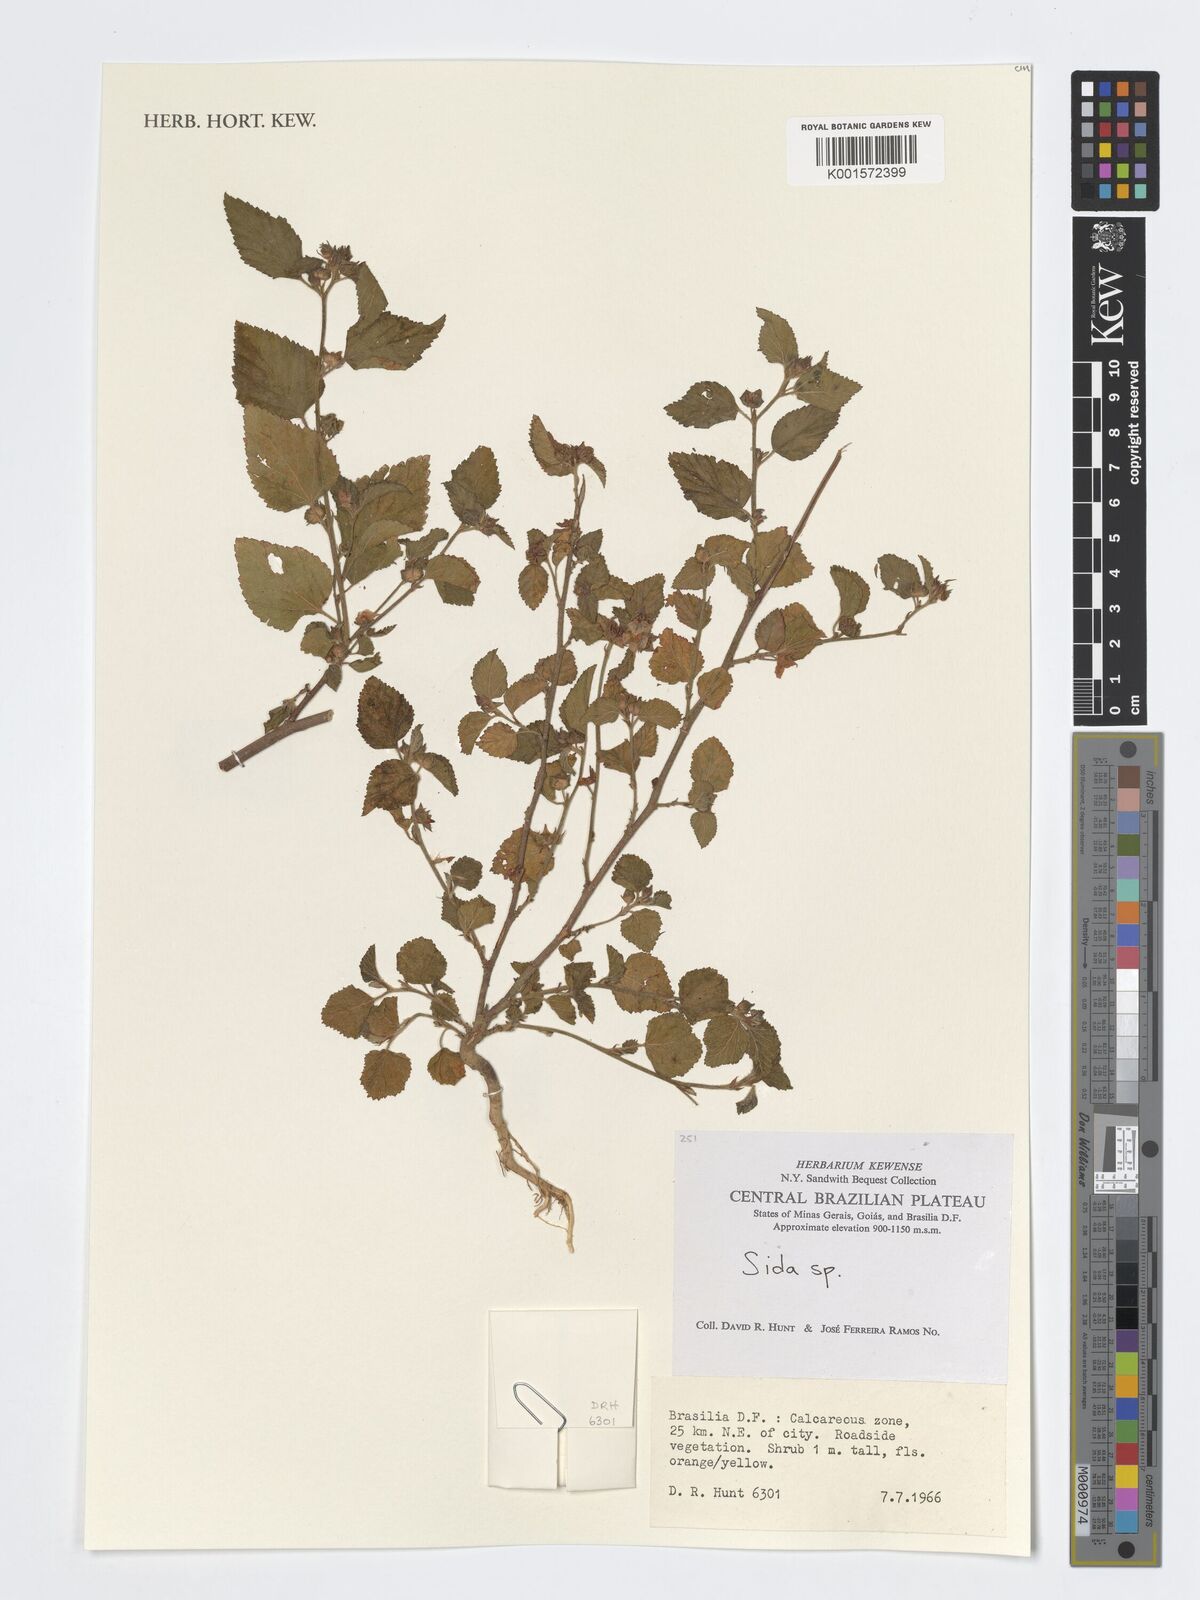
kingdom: Plantae
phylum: Tracheophyta
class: Magnoliopsida
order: Malvales
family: Malvaceae
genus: Sida
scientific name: Sida
